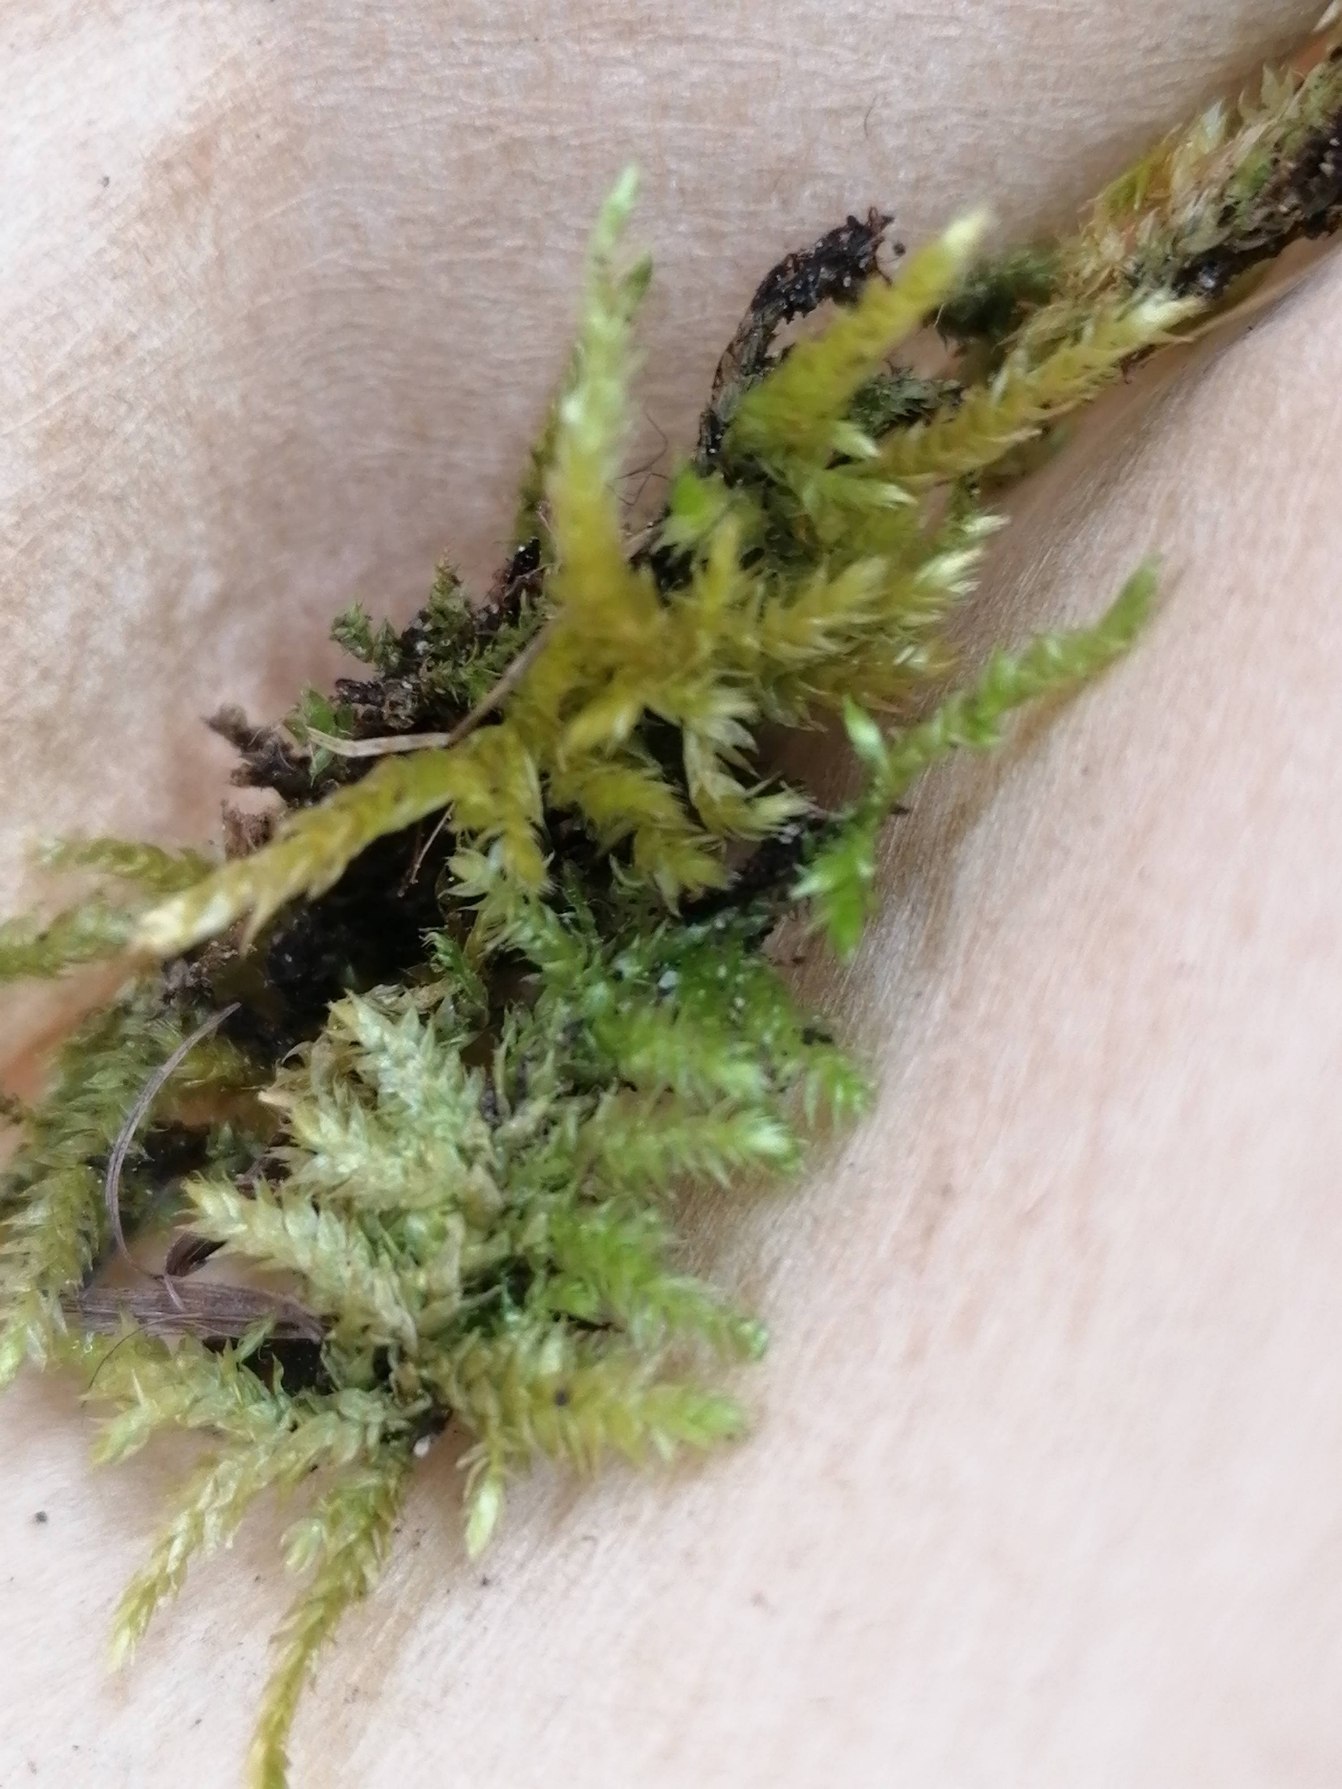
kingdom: Plantae
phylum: Bryophyta
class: Bryopsida
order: Hypnales
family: Brachytheciaceae
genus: Brachythecium
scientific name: Brachythecium rutabulum
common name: Almindelig kortkapsel
